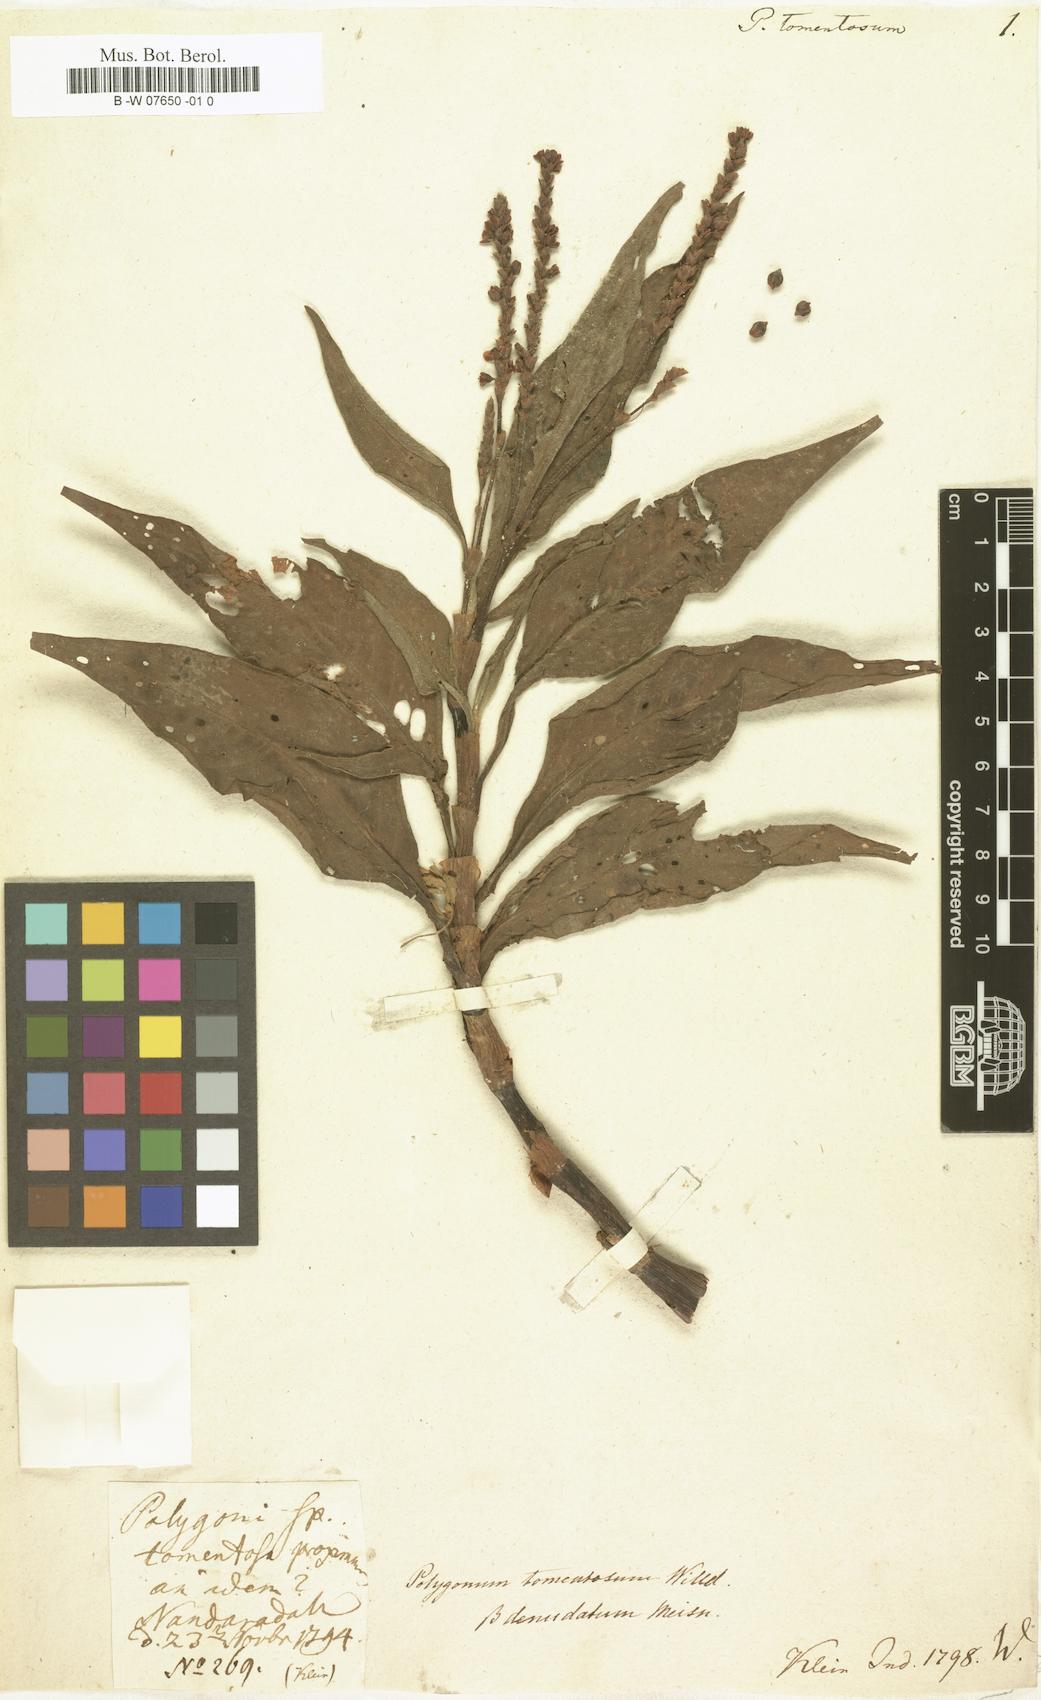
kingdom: Plantae
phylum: Tracheophyta
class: Magnoliopsida
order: Caryophyllales
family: Polygonaceae
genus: Persicaria
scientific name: Persicaria madagascariensis
